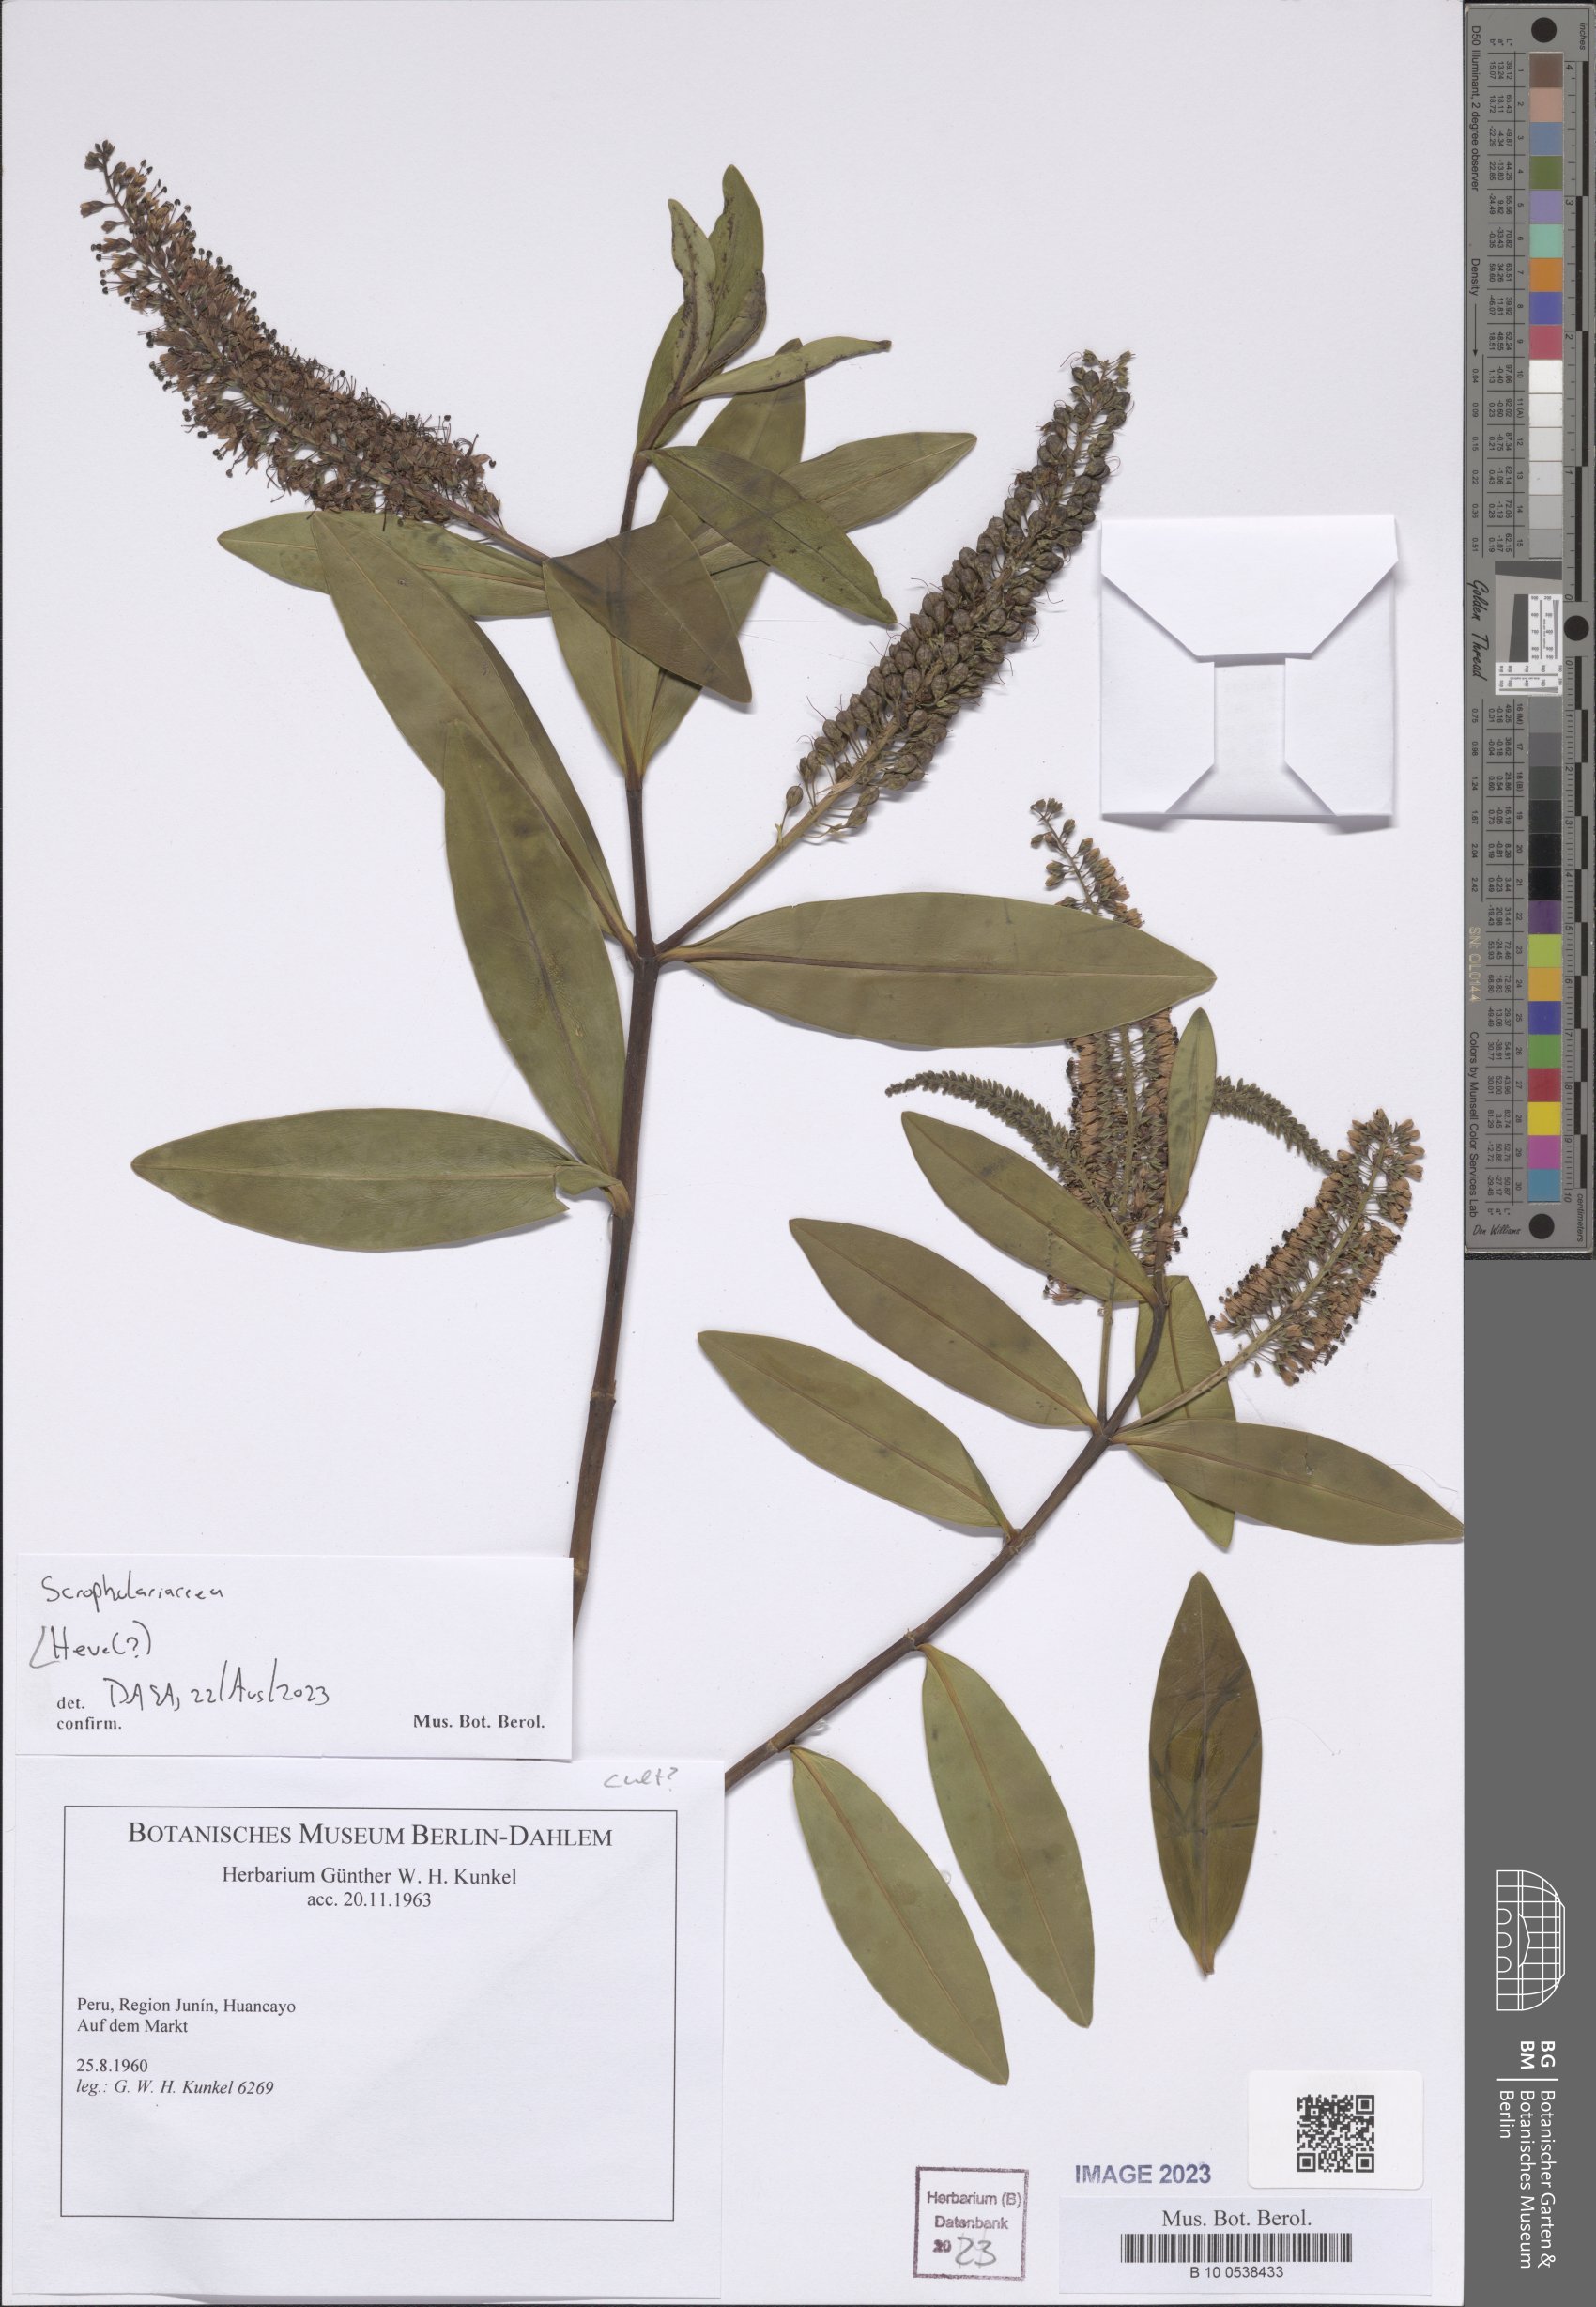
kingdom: Plantae
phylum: Tracheophyta
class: Magnoliopsida
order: Lamiales
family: Plantaginaceae
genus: Veronica
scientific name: Veronica
